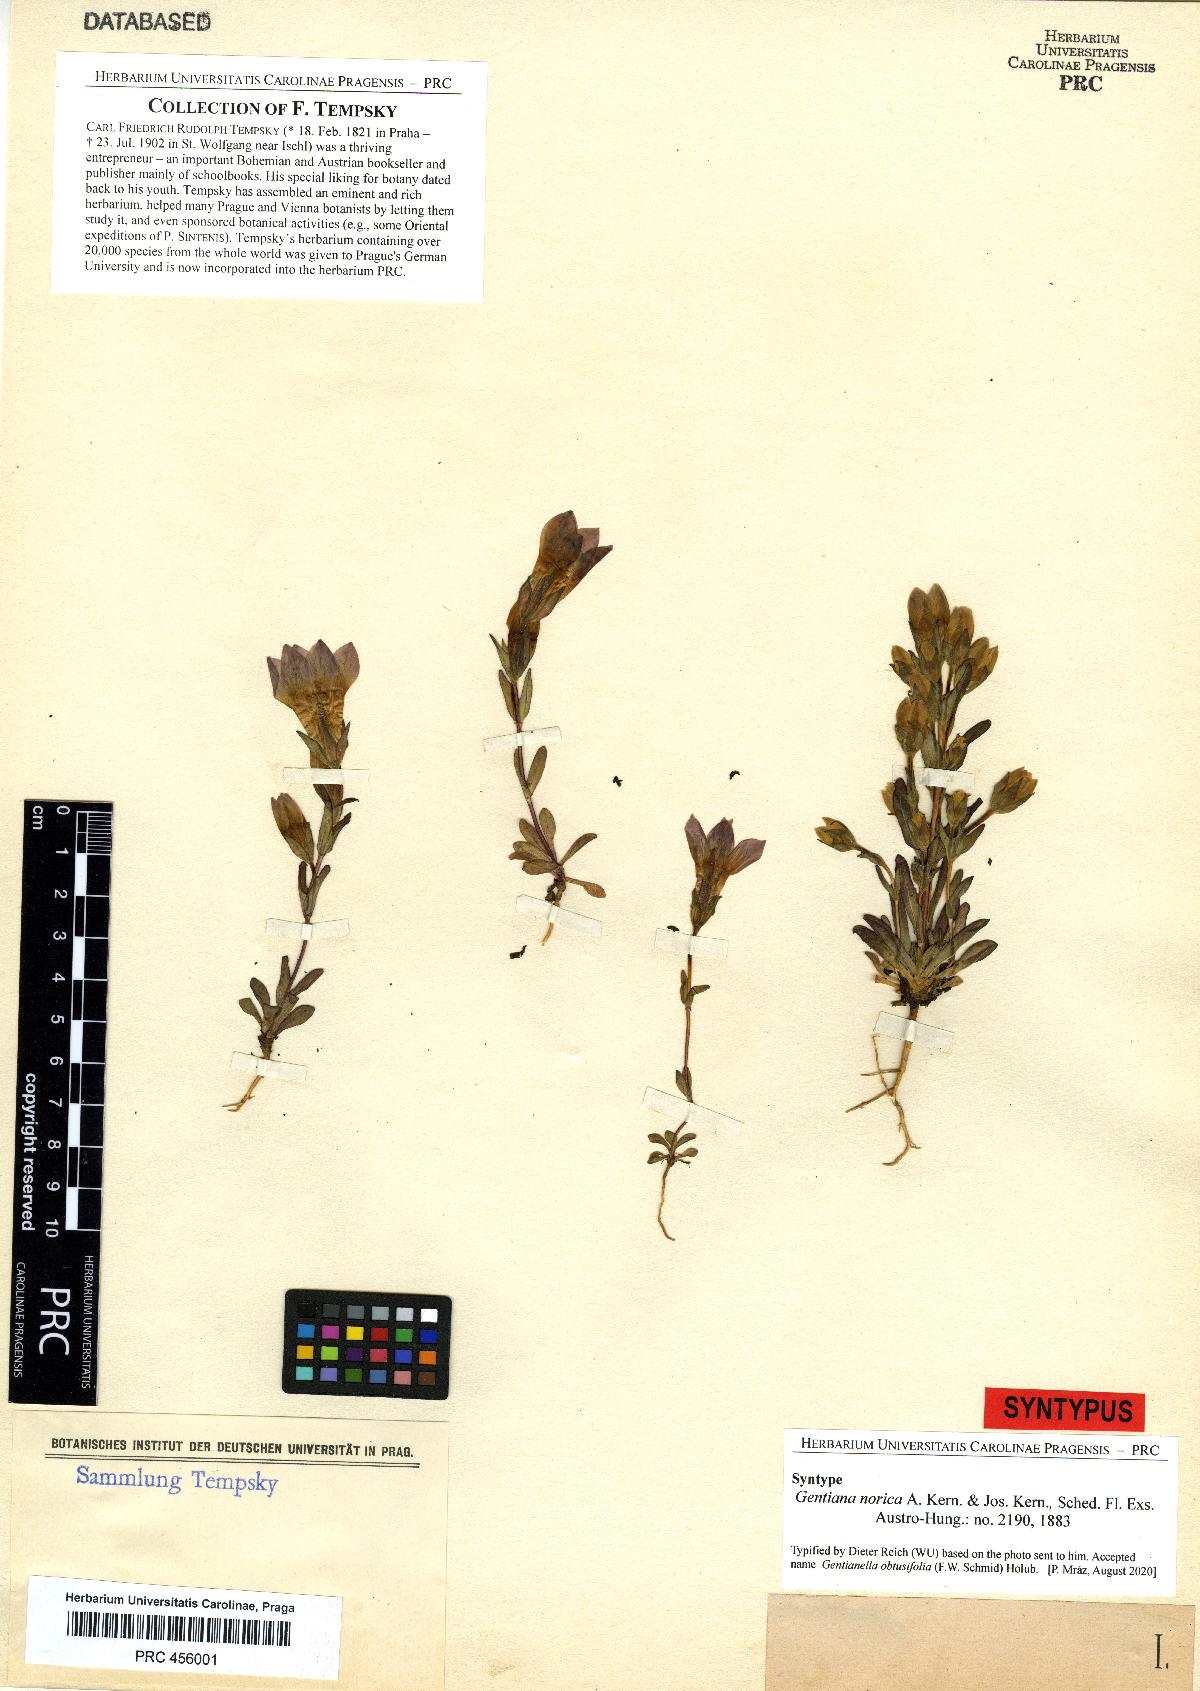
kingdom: Plantae
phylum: Tracheophyta
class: Magnoliopsida
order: Gentianales
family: Gentianaceae
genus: Gentianella
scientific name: Gentianella obtusifolia
